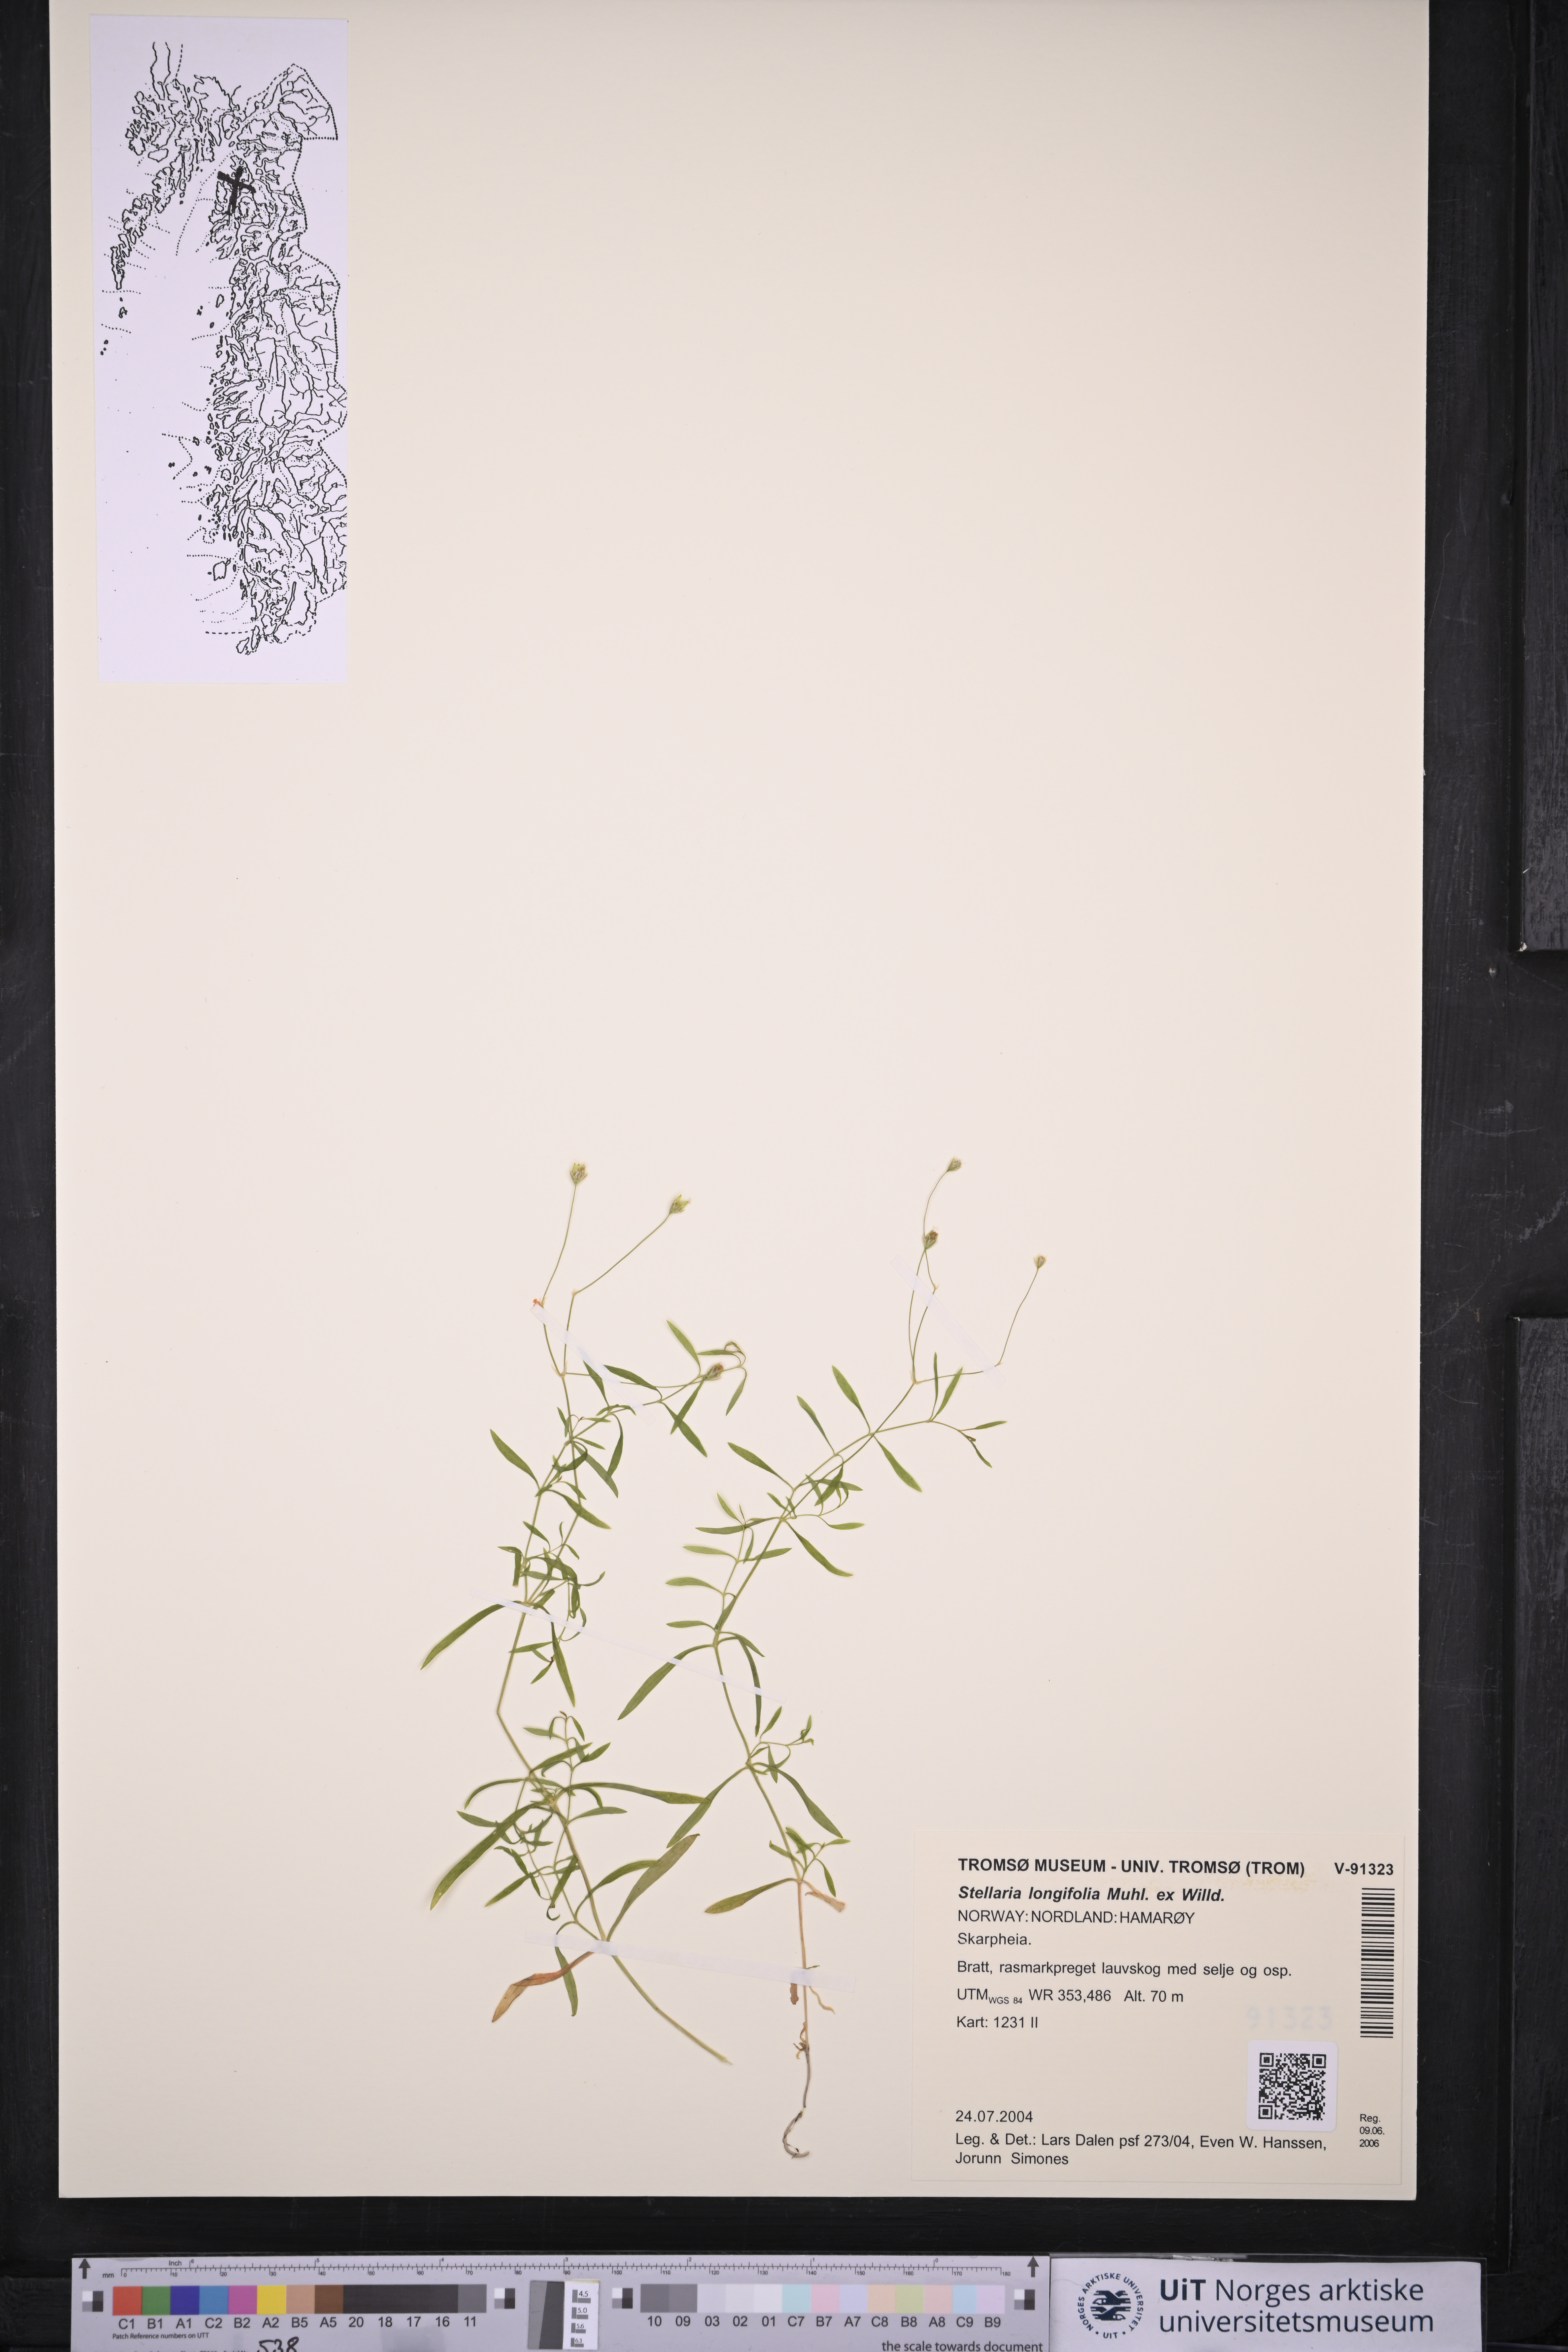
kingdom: Plantae
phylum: Tracheophyta
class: Magnoliopsida
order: Caryophyllales
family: Caryophyllaceae
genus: Stellaria
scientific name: Stellaria longifolia
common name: Long-leaved chickweed
